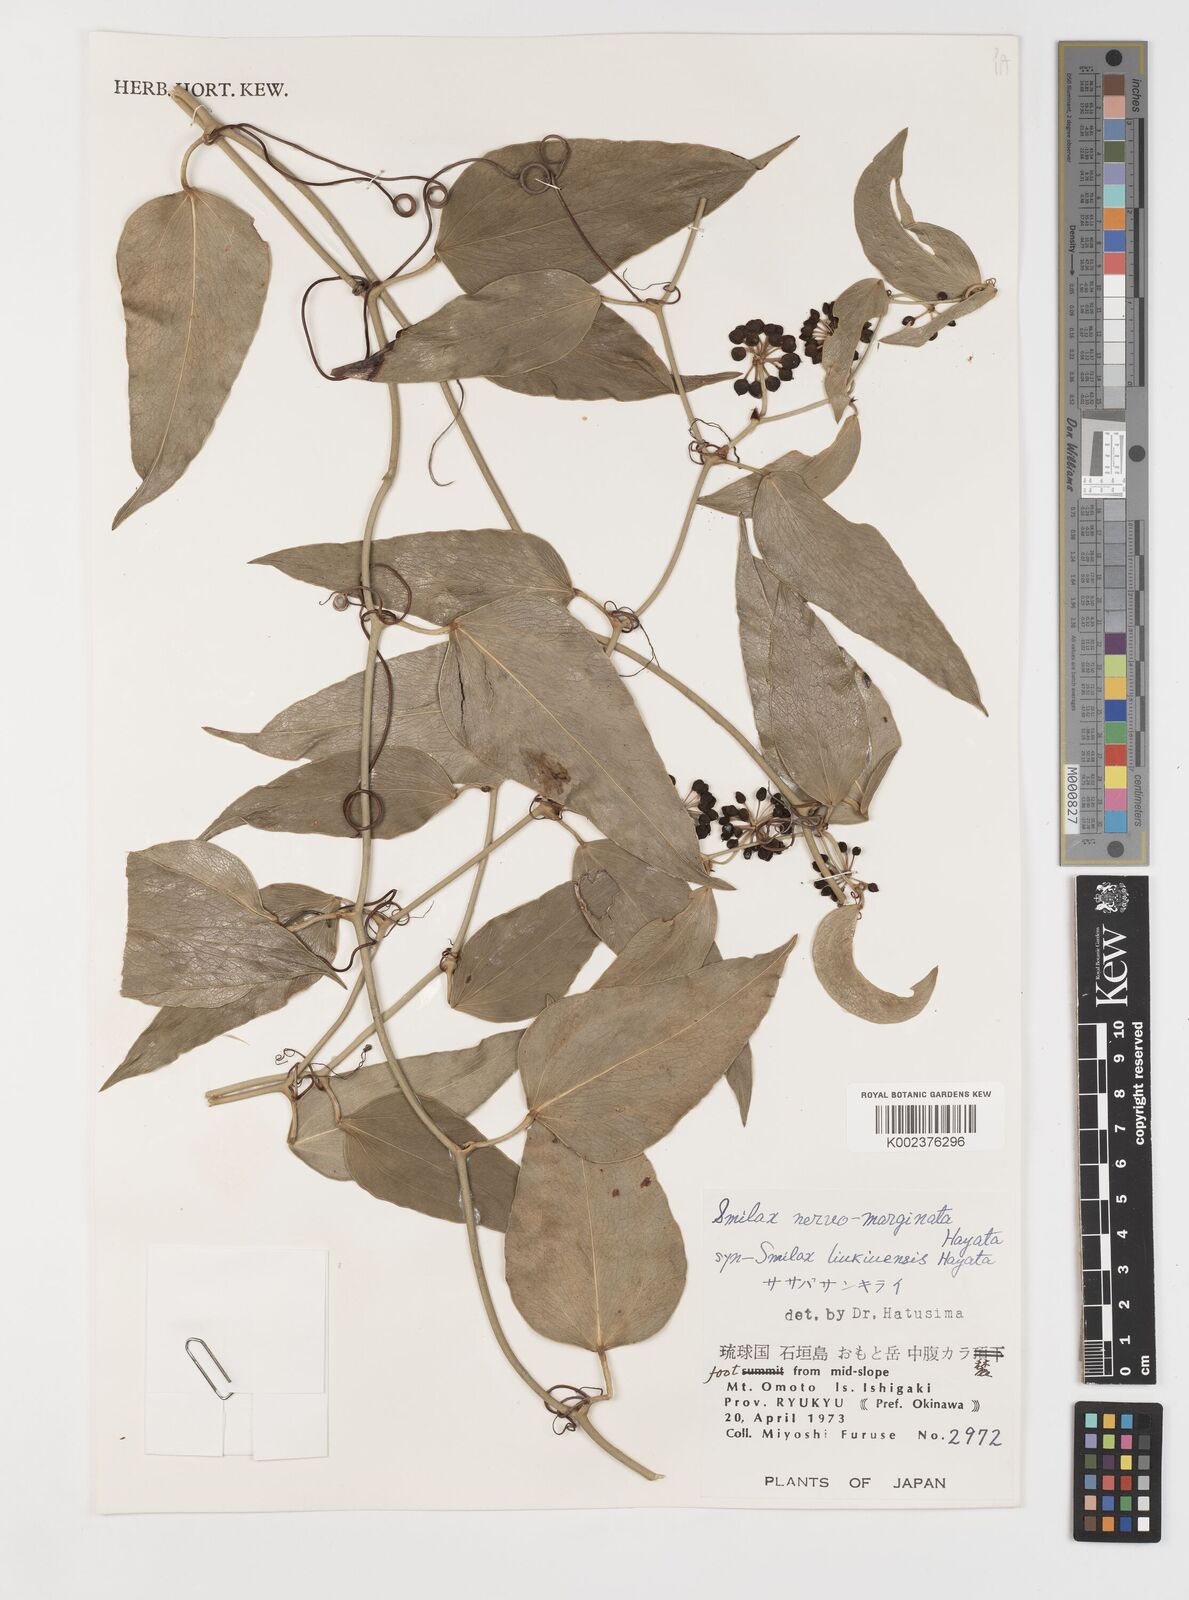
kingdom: Plantae
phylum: Tracheophyta
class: Liliopsida
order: Liliales
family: Smilacaceae
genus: Smilax
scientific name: Smilax nervomarginata
